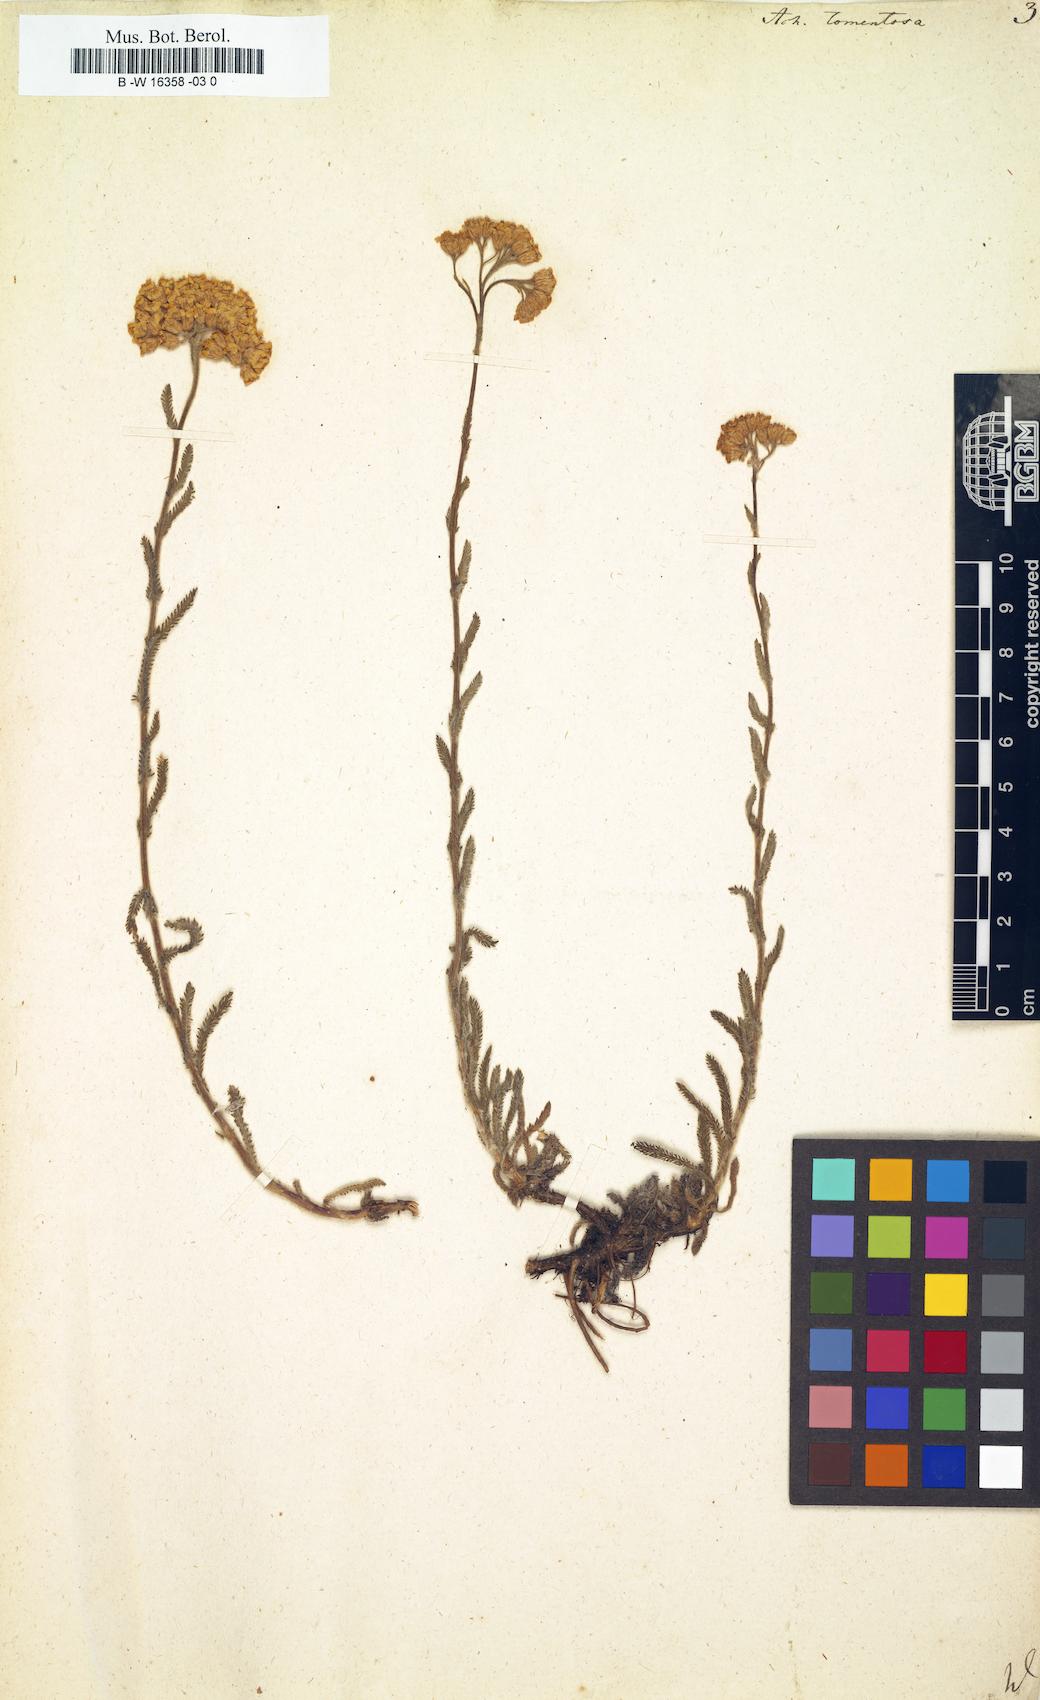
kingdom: Plantae
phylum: Tracheophyta
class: Magnoliopsida
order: Asterales
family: Asteraceae
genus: Achillea
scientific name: Achillea tomentosa
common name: Yellow milfoil
